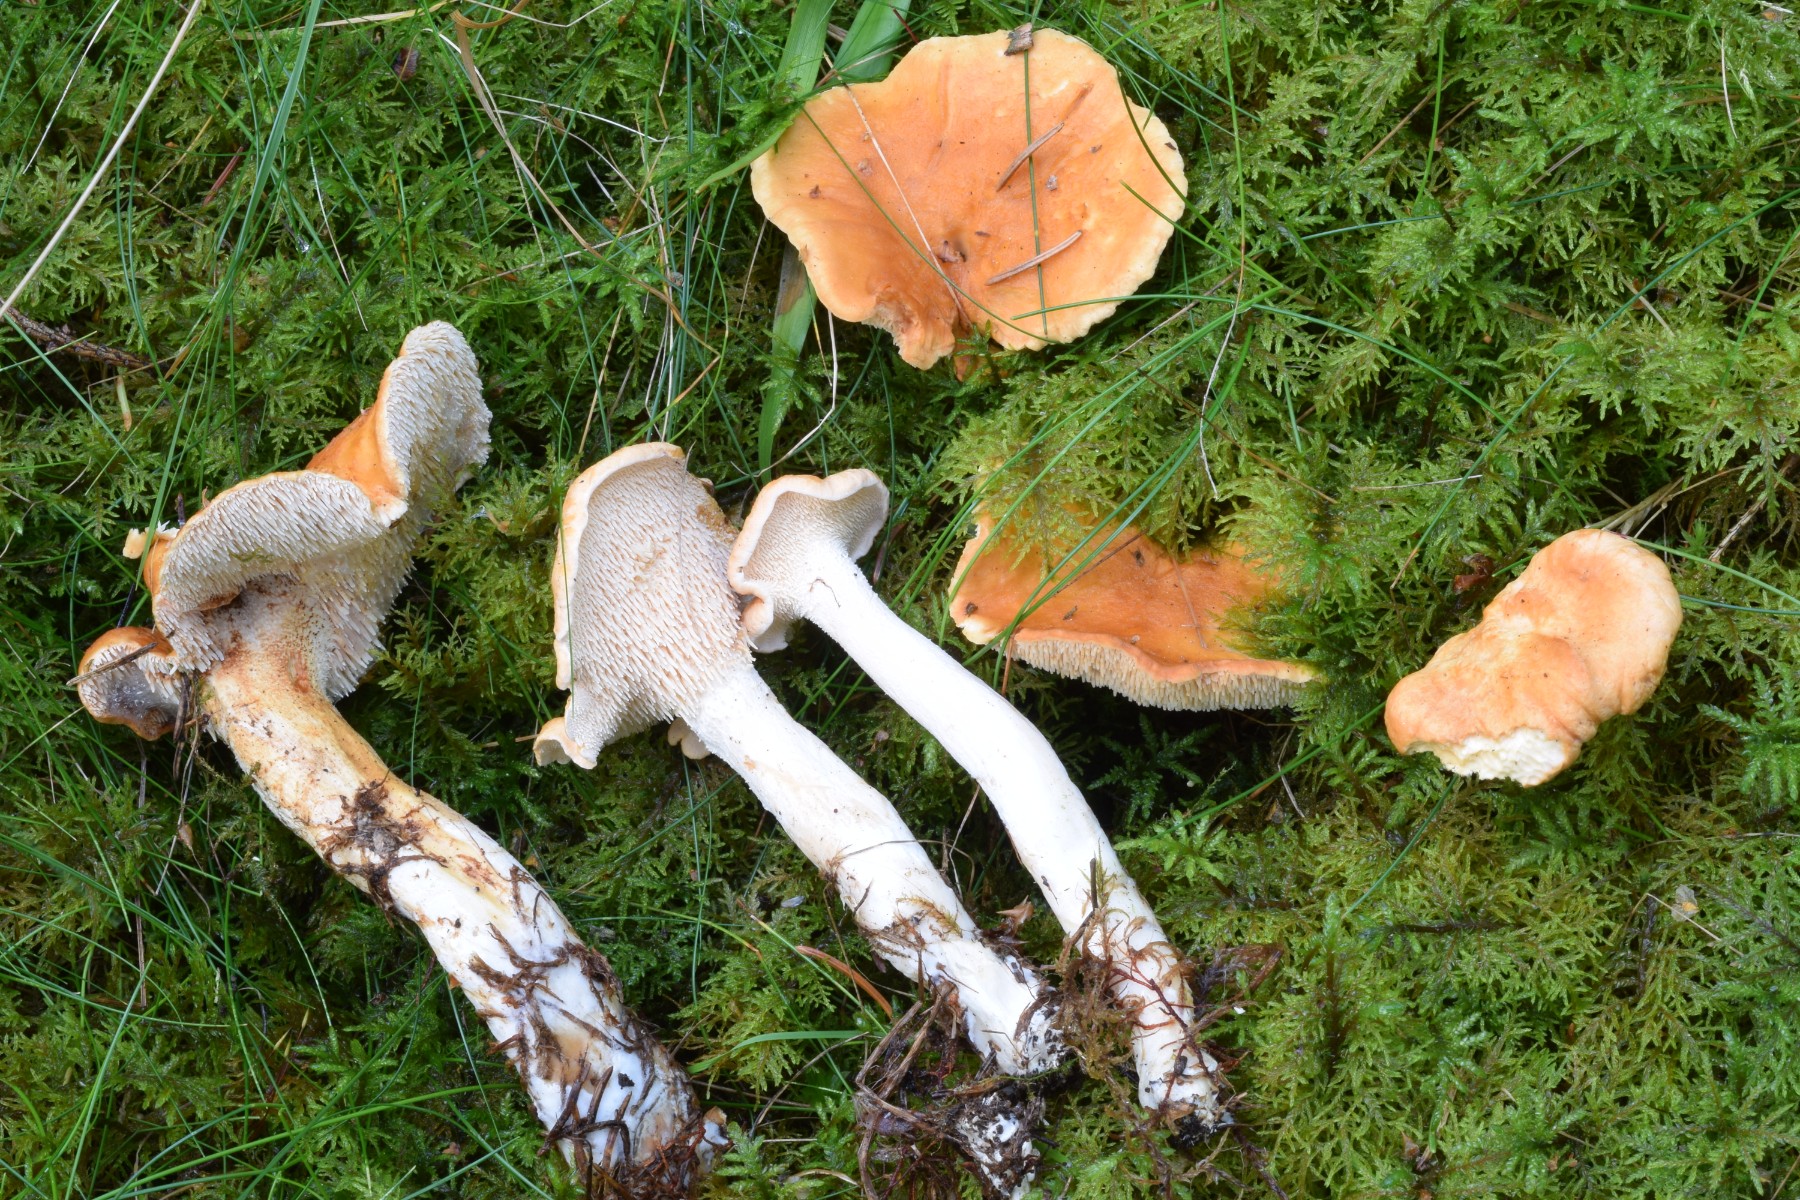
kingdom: Fungi
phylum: Basidiomycota
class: Agaricomycetes
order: Cantharellales
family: Hydnaceae
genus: Hydnum
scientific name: Hydnum rufescens
